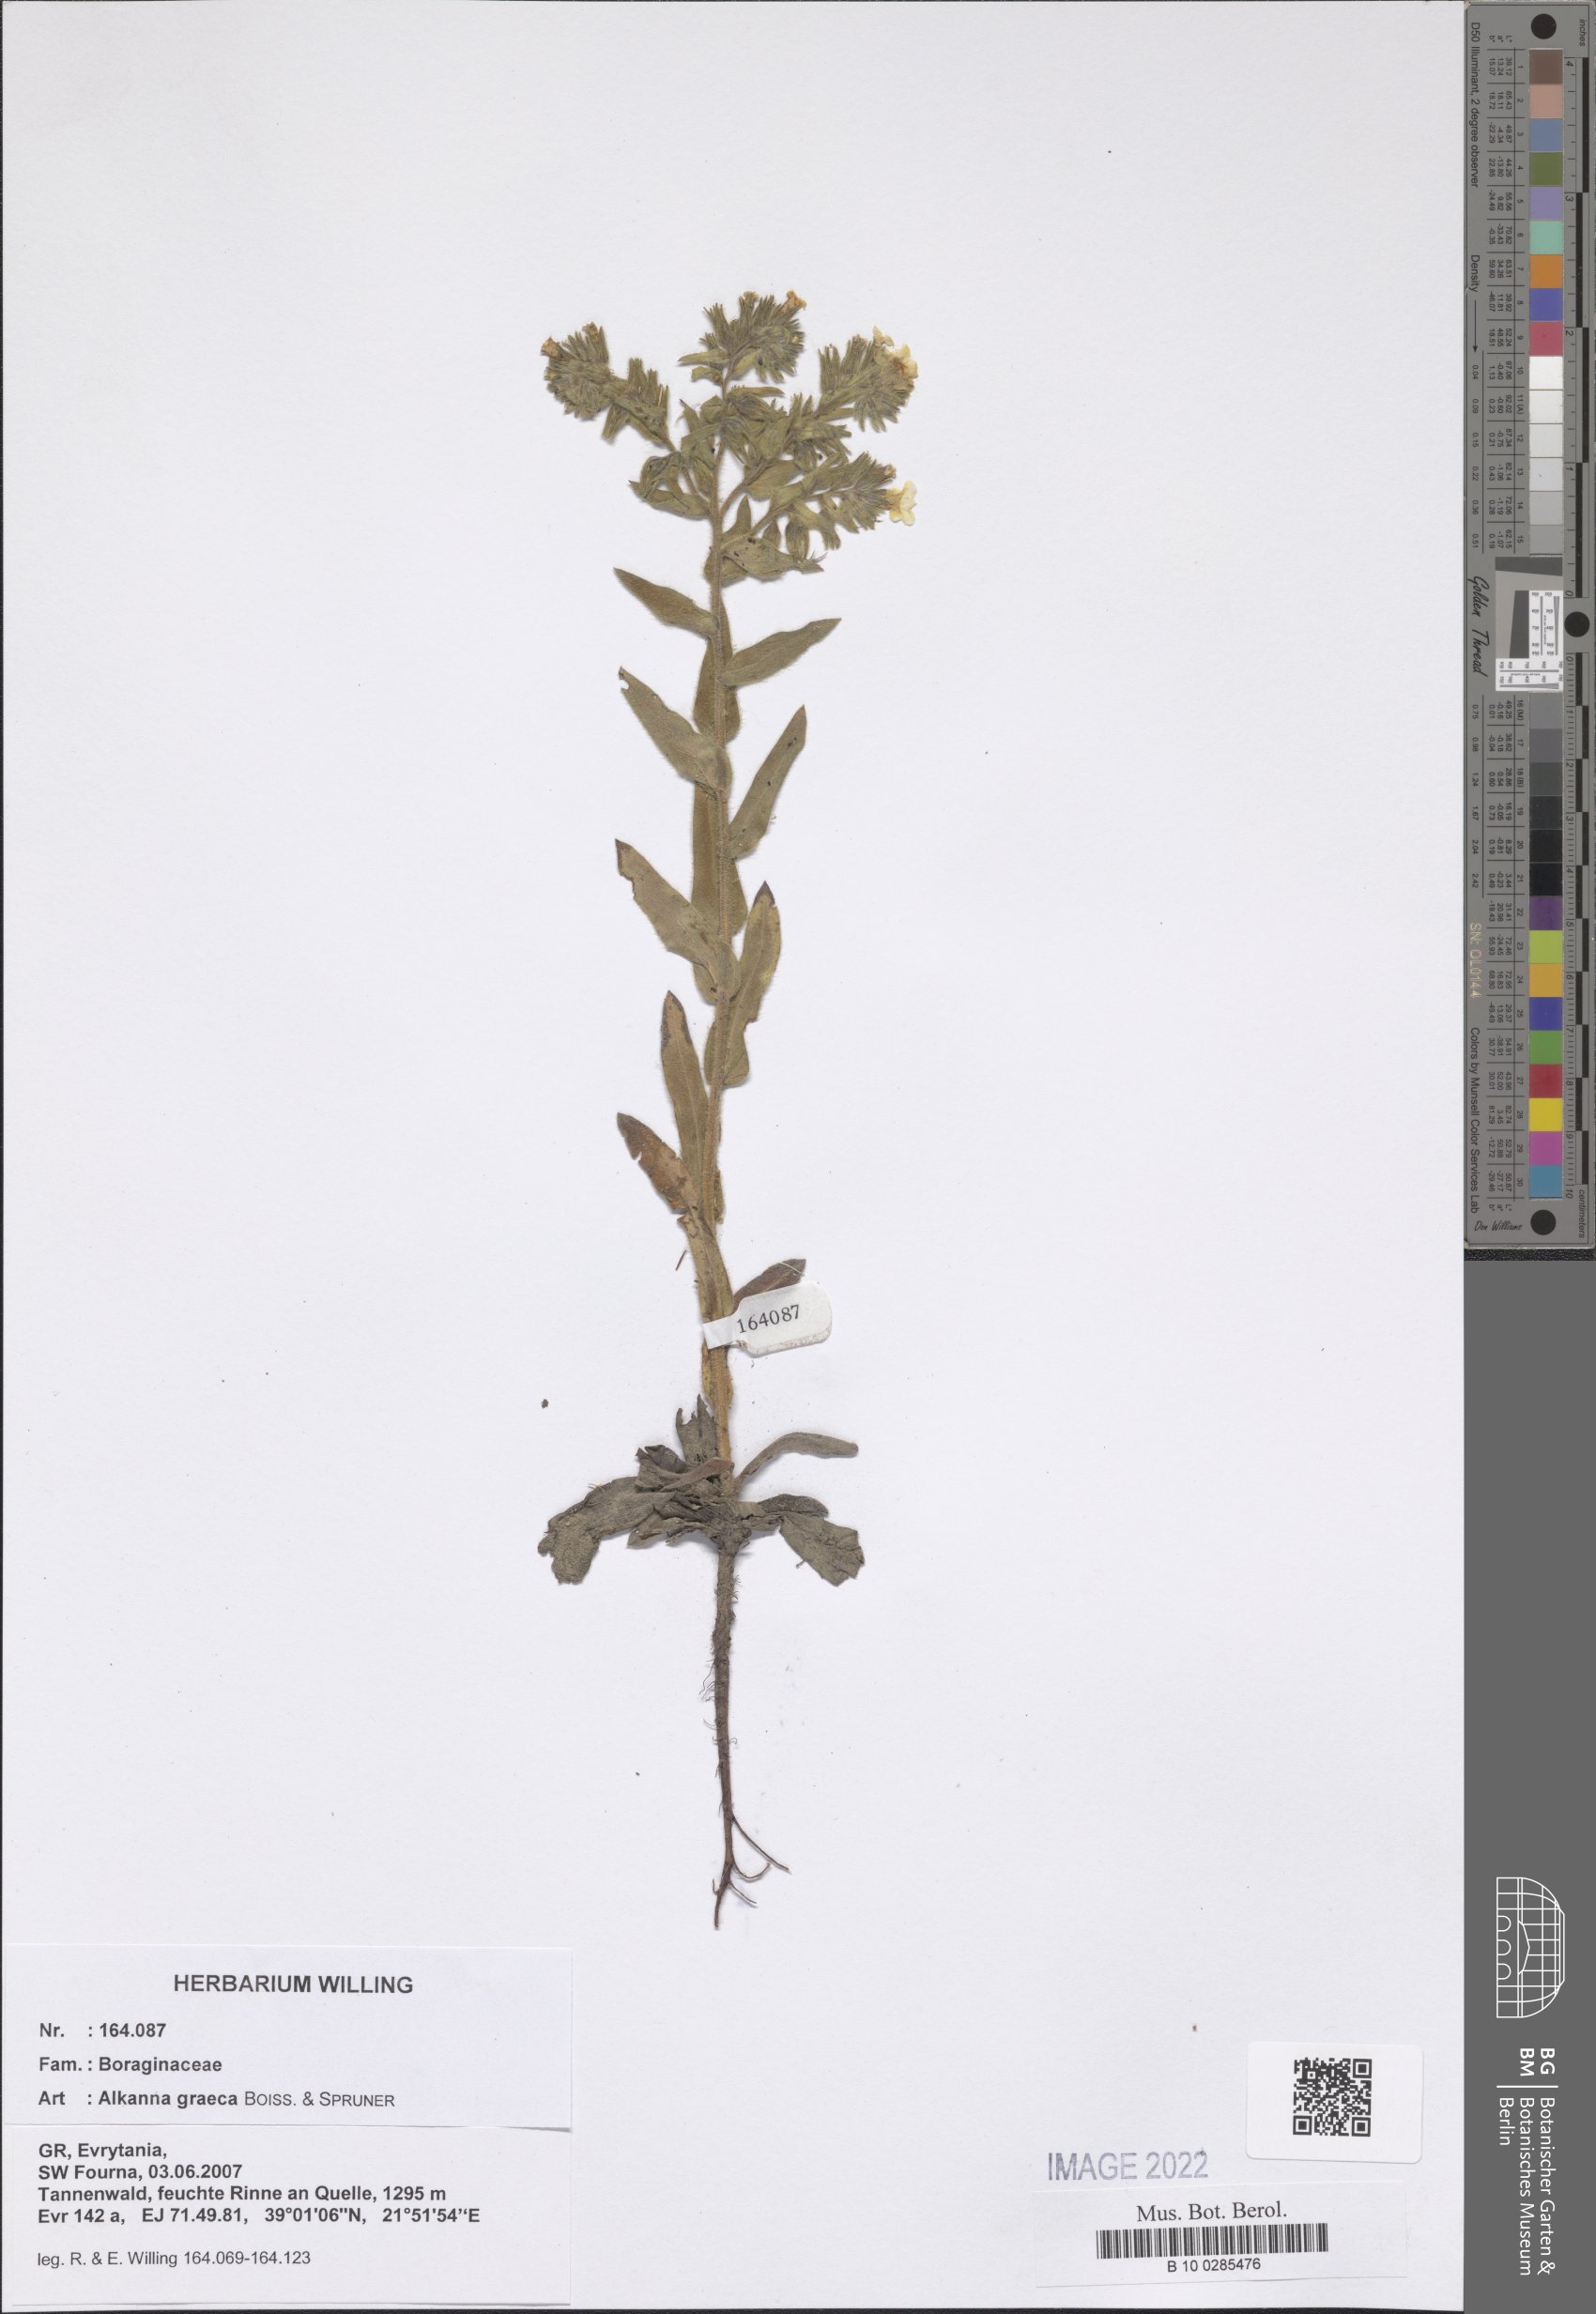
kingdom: Plantae
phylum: Tracheophyta
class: Magnoliopsida
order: Boraginales
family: Boraginaceae
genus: Alkanna
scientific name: Alkanna graeca
